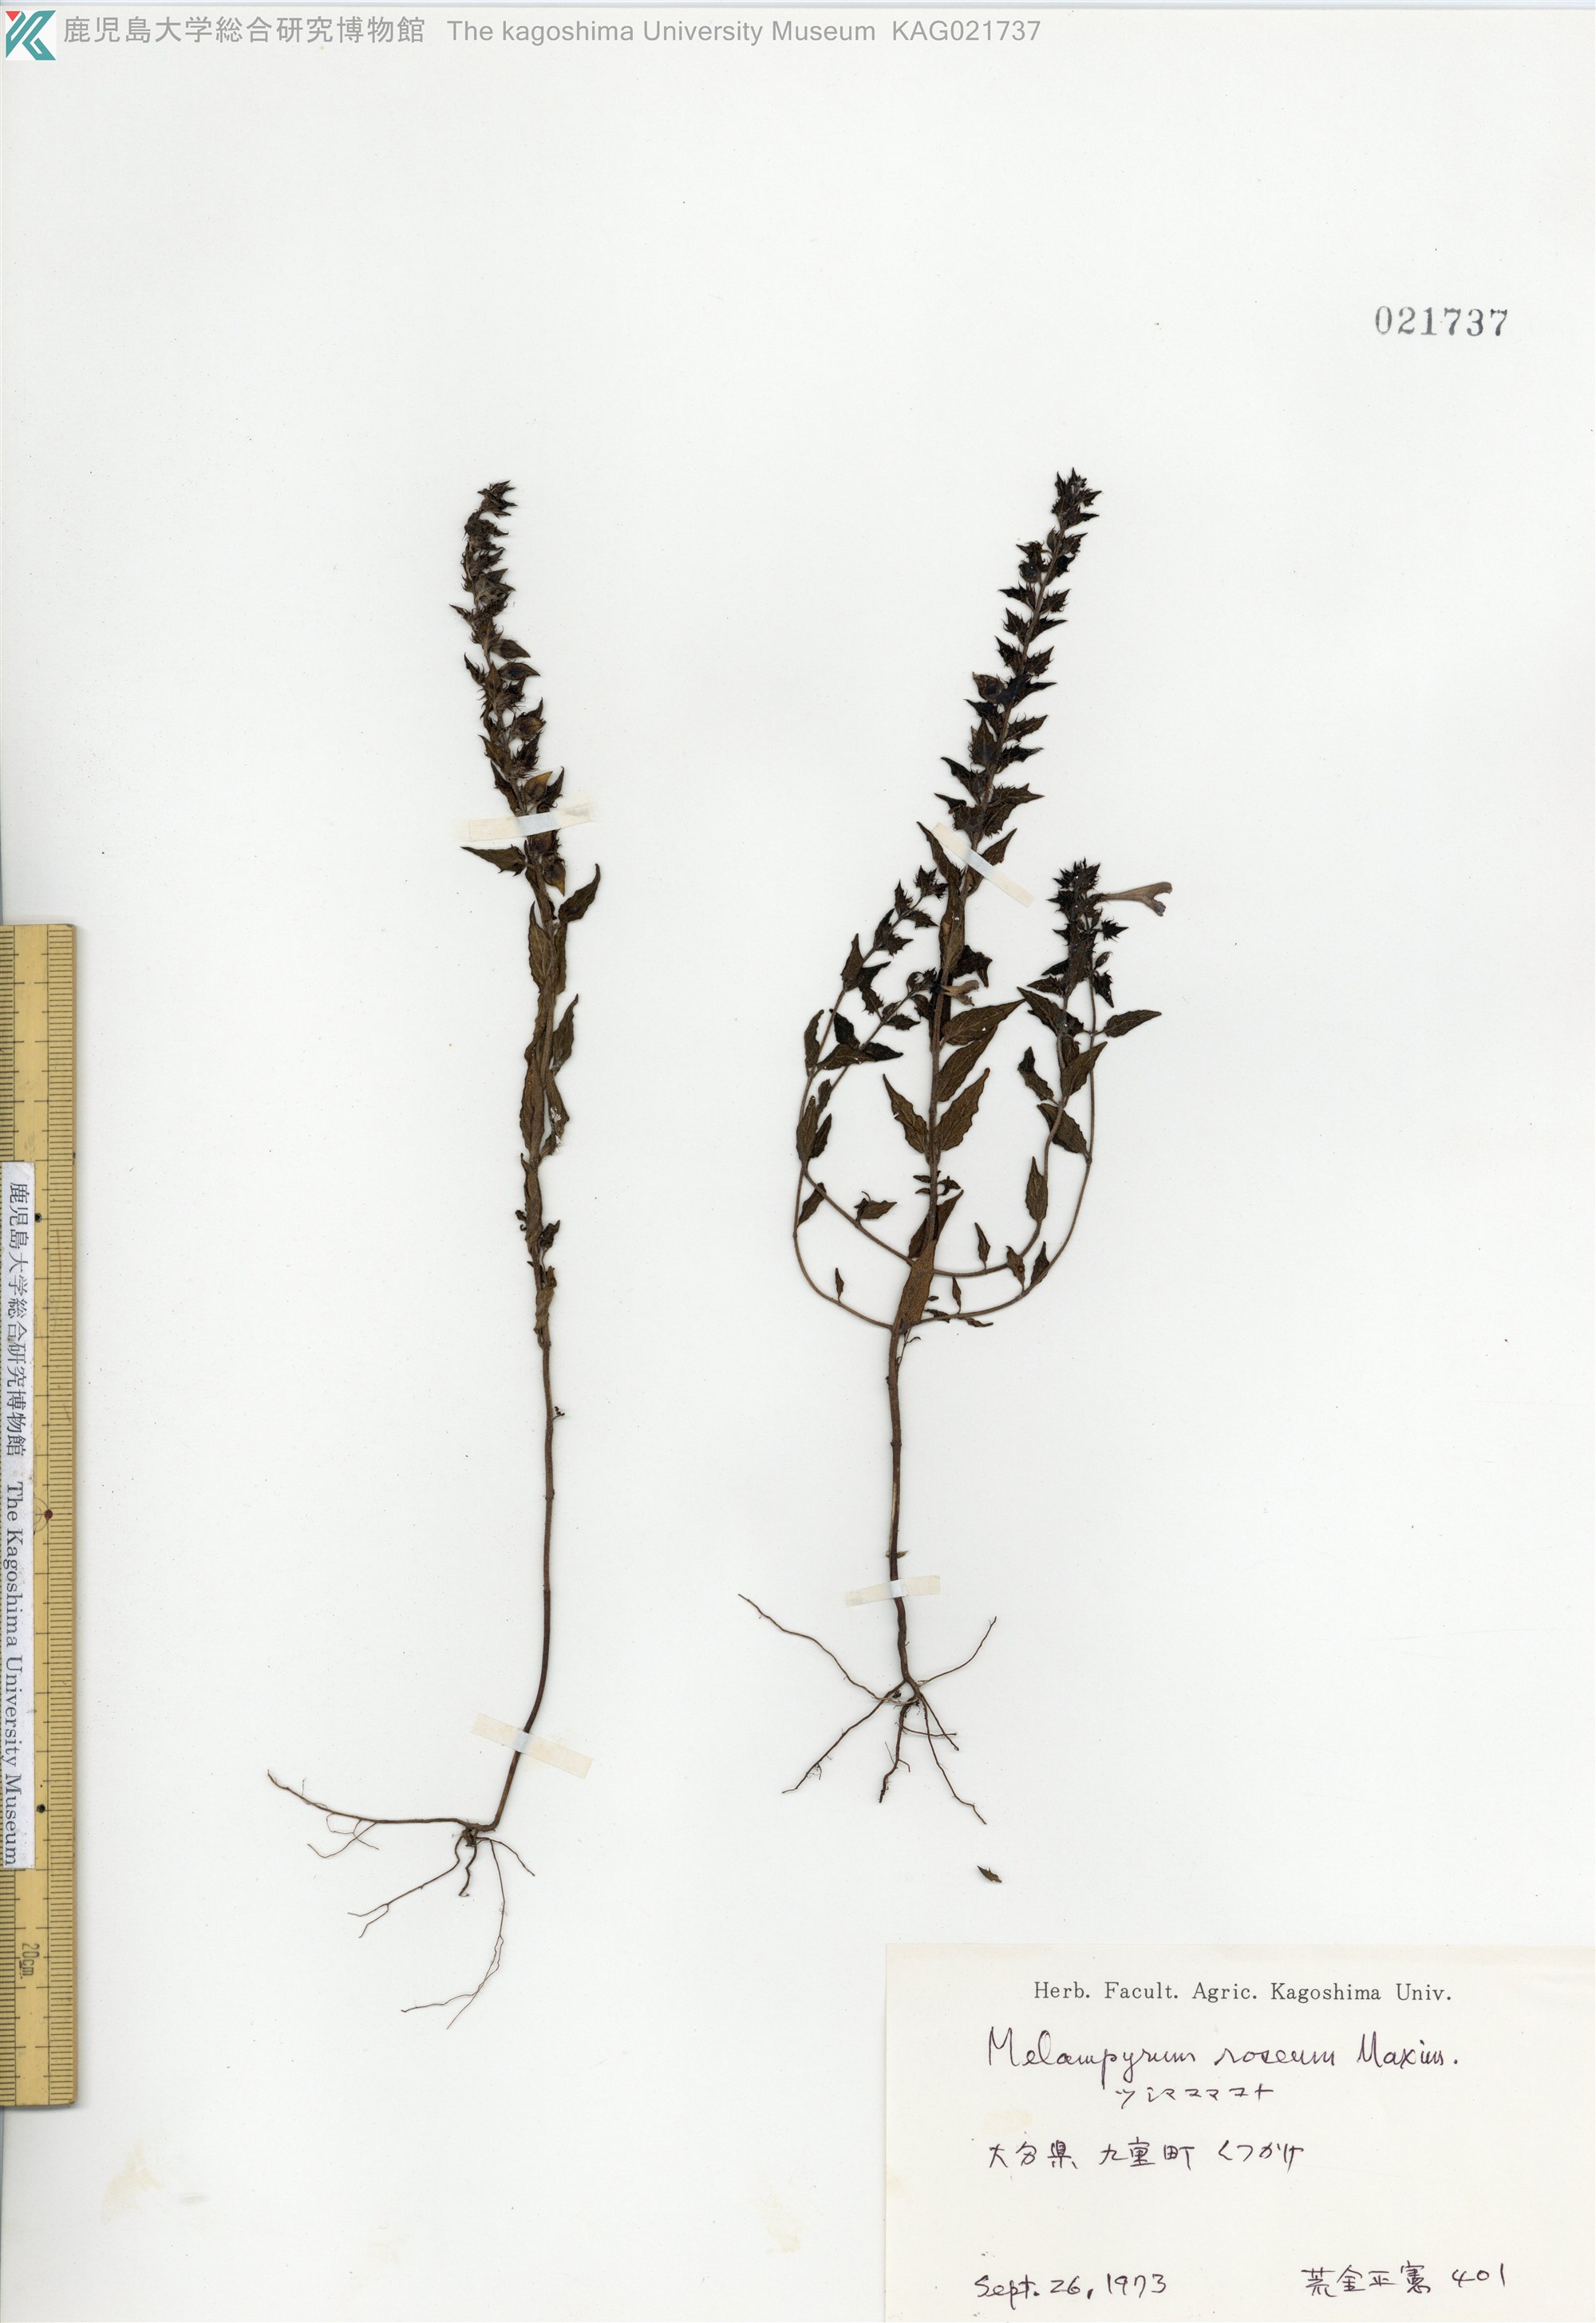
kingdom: Plantae
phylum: Tracheophyta
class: Magnoliopsida
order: Lamiales
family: Orobanchaceae
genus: Melampyrum
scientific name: Melampyrum roseum
